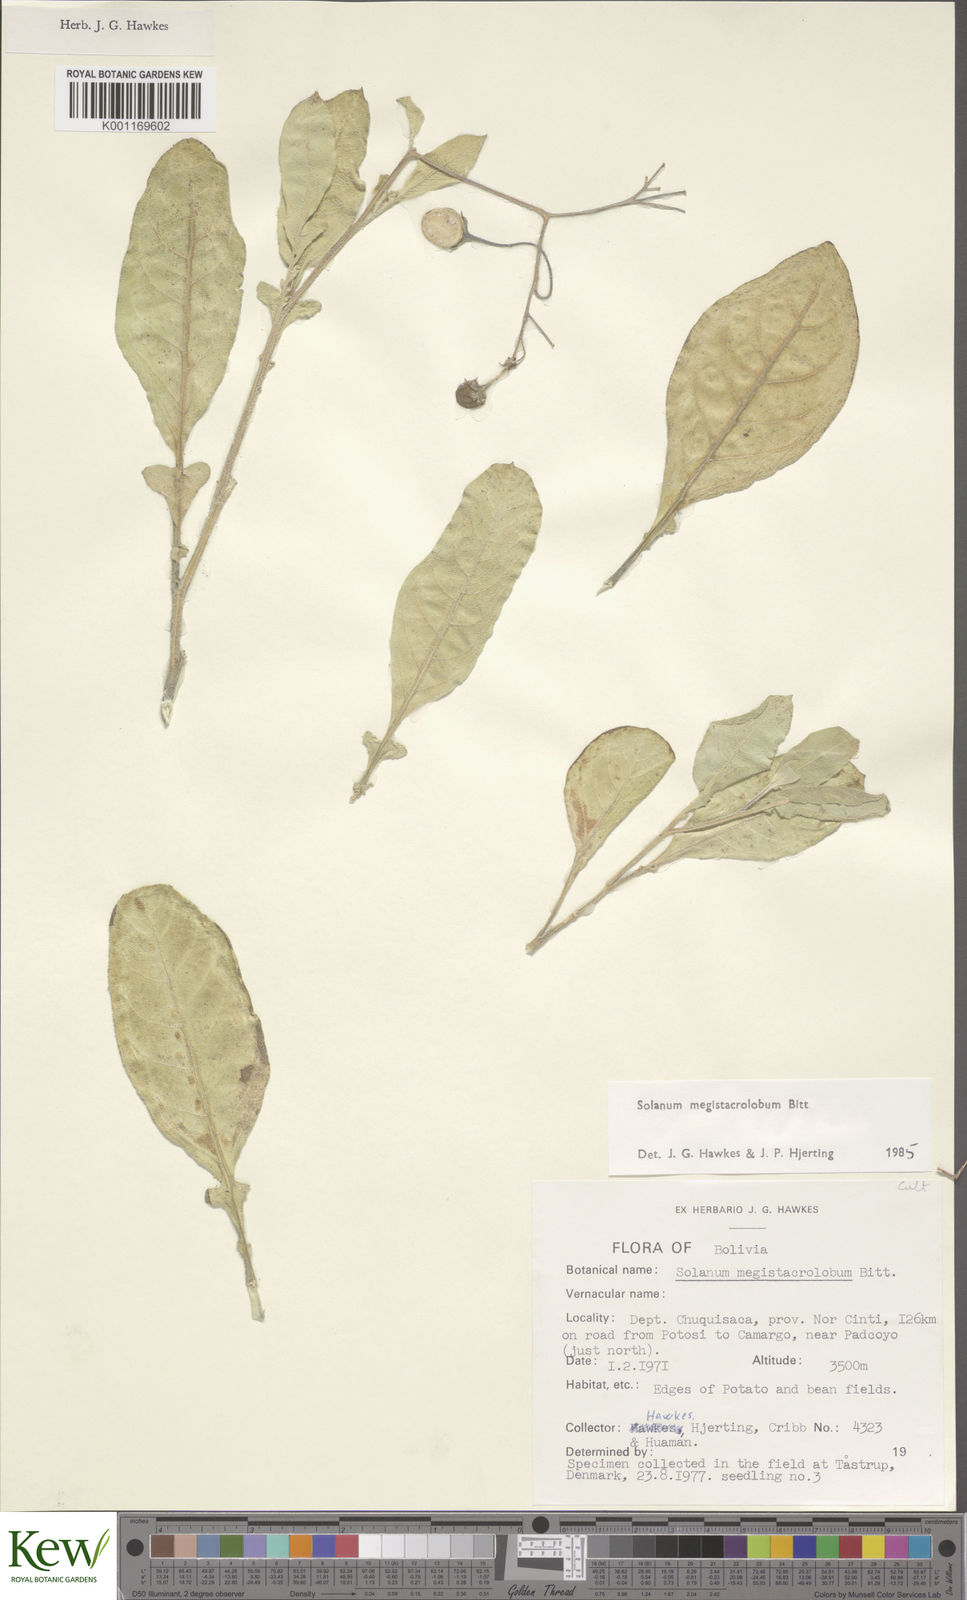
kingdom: Plantae
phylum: Tracheophyta
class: Magnoliopsida
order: Solanales
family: Solanaceae
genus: Solanum
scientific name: Solanum boliviense
